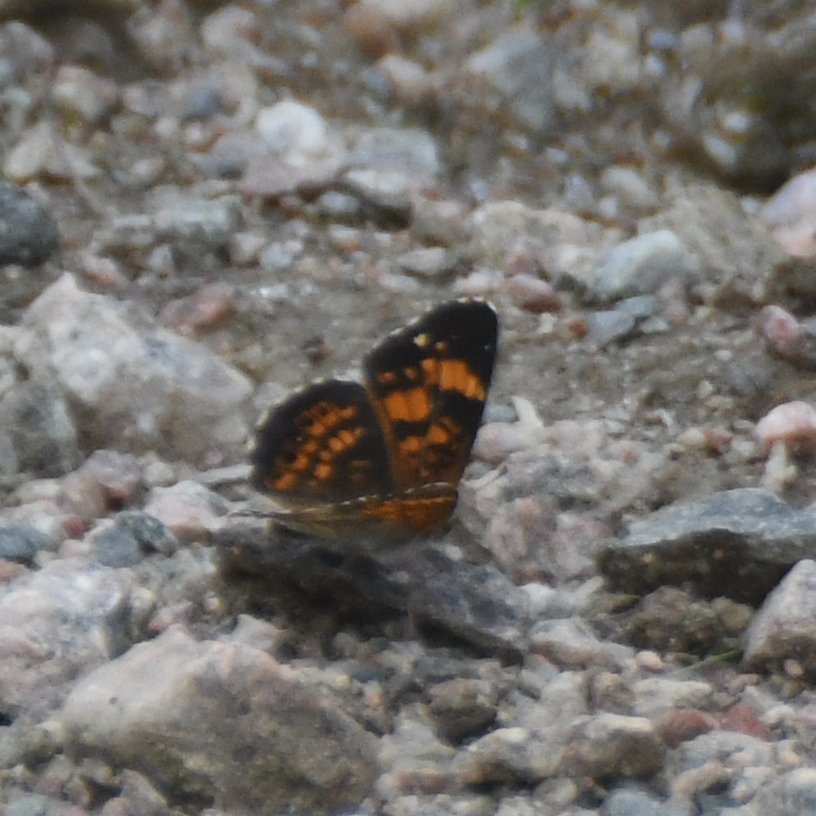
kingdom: Animalia
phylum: Arthropoda
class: Insecta
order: Lepidoptera
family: Nymphalidae
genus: Chlosyne
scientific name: Chlosyne nycteis
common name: Silvery Checkerspot
